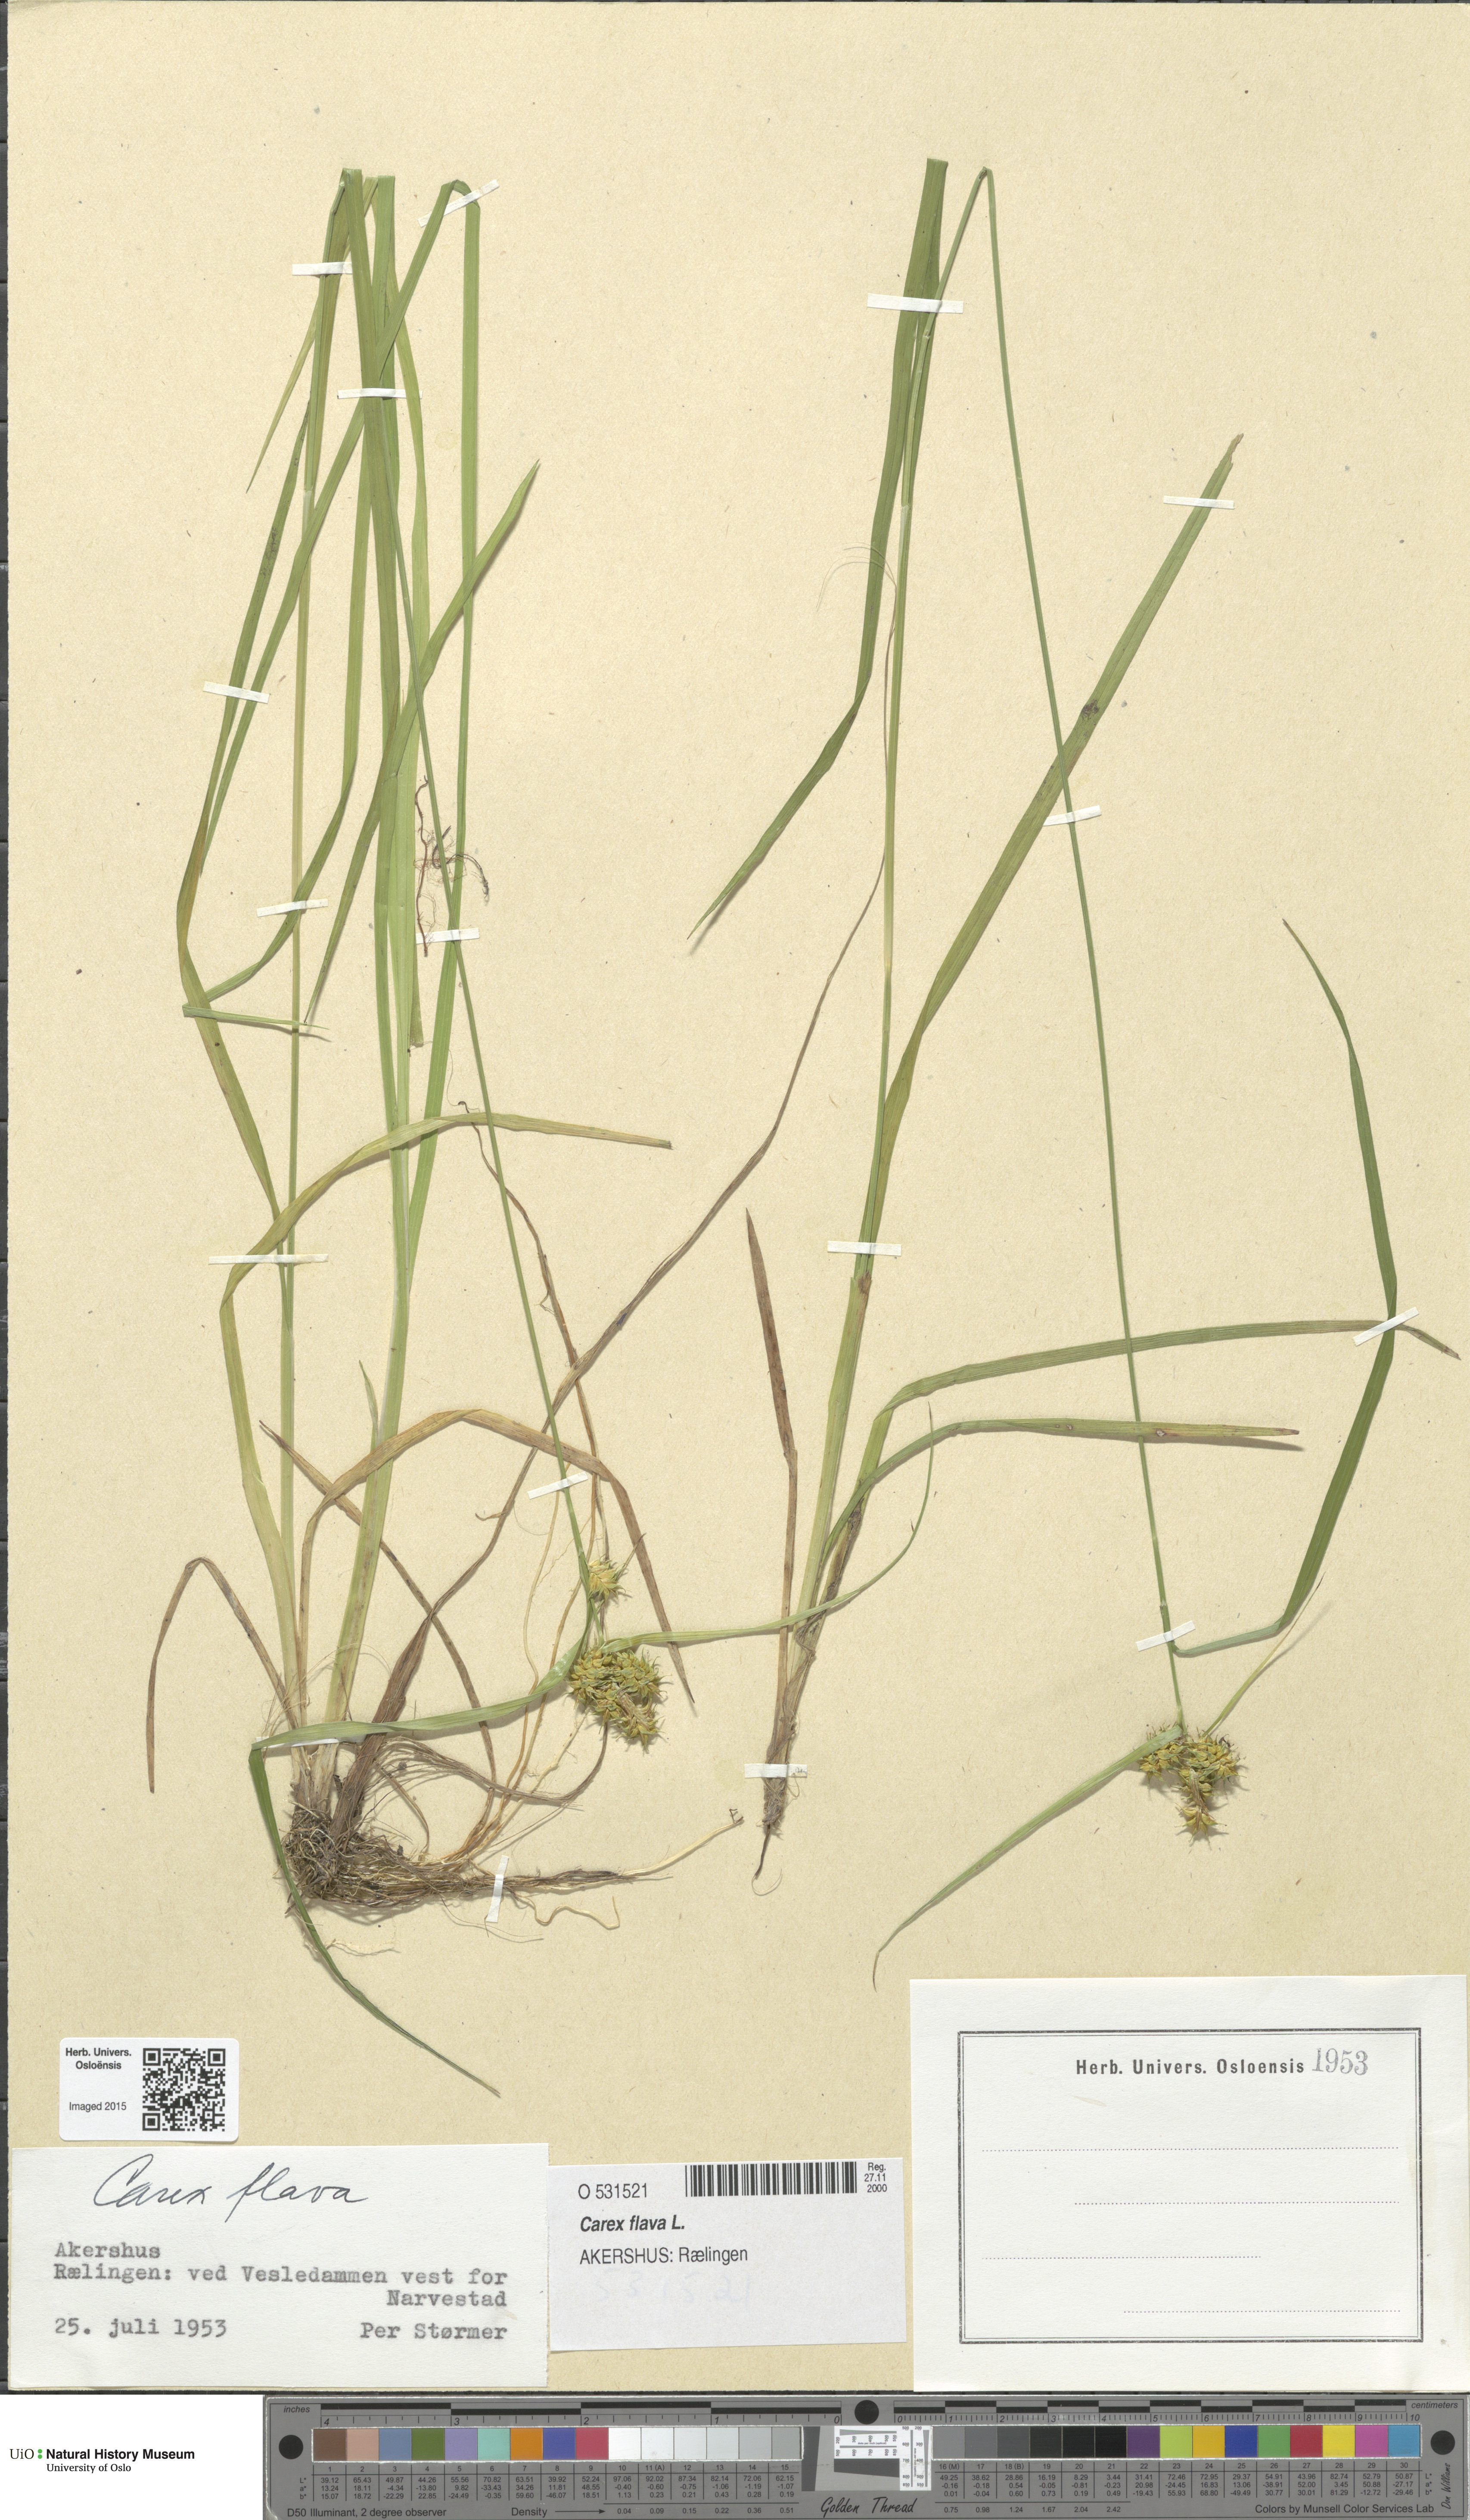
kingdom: Plantae
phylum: Tracheophyta
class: Liliopsida
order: Poales
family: Cyperaceae
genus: Carex
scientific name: Carex flava
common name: Large yellow-sedge
